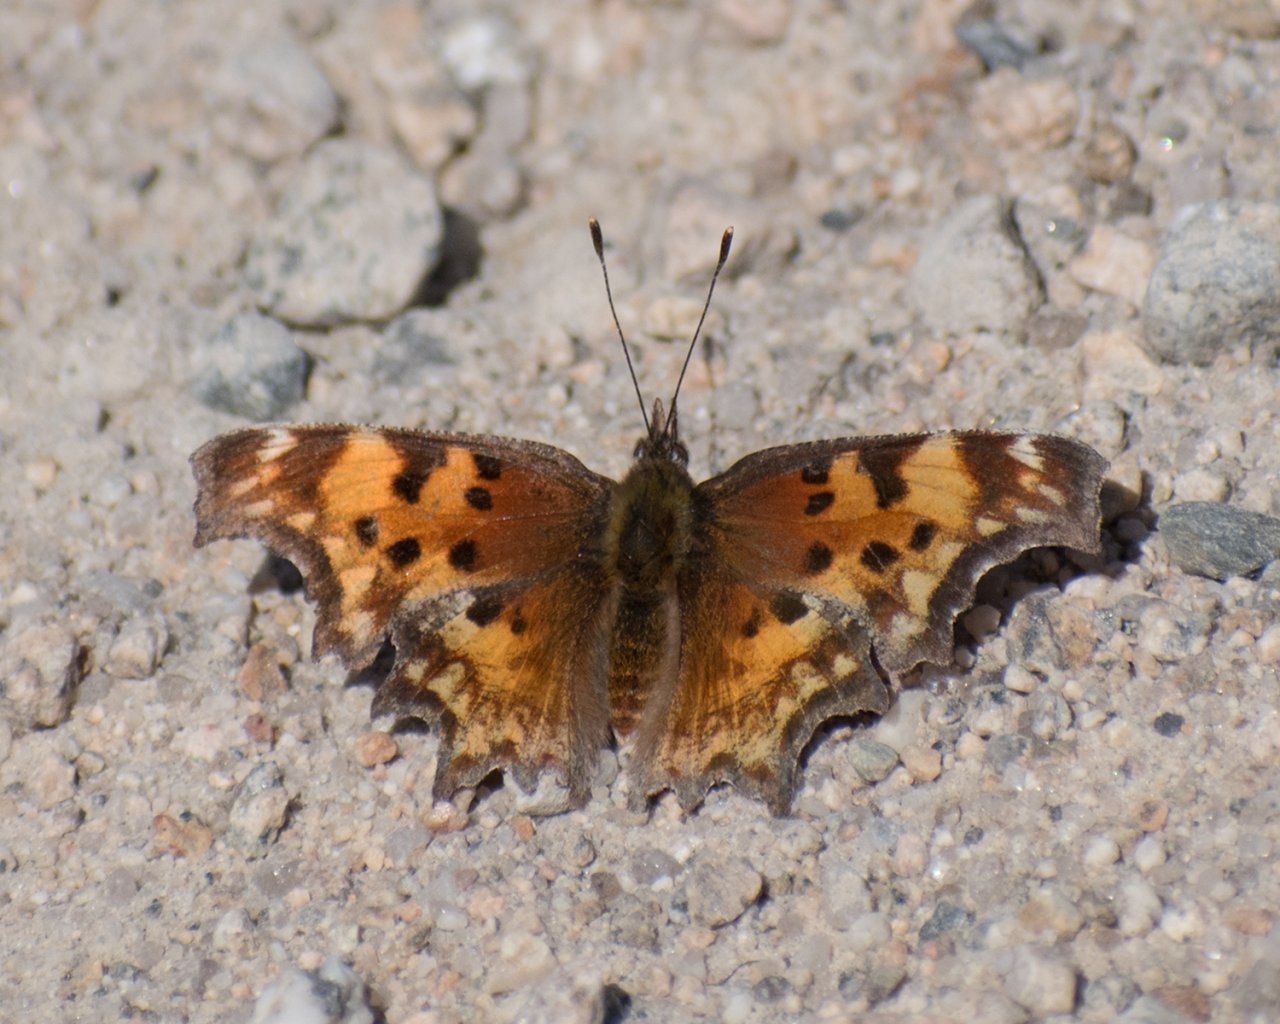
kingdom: Animalia
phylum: Arthropoda
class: Insecta
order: Lepidoptera
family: Nymphalidae
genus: Polygonia
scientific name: Polygonia gracilis
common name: Hoary Comma
